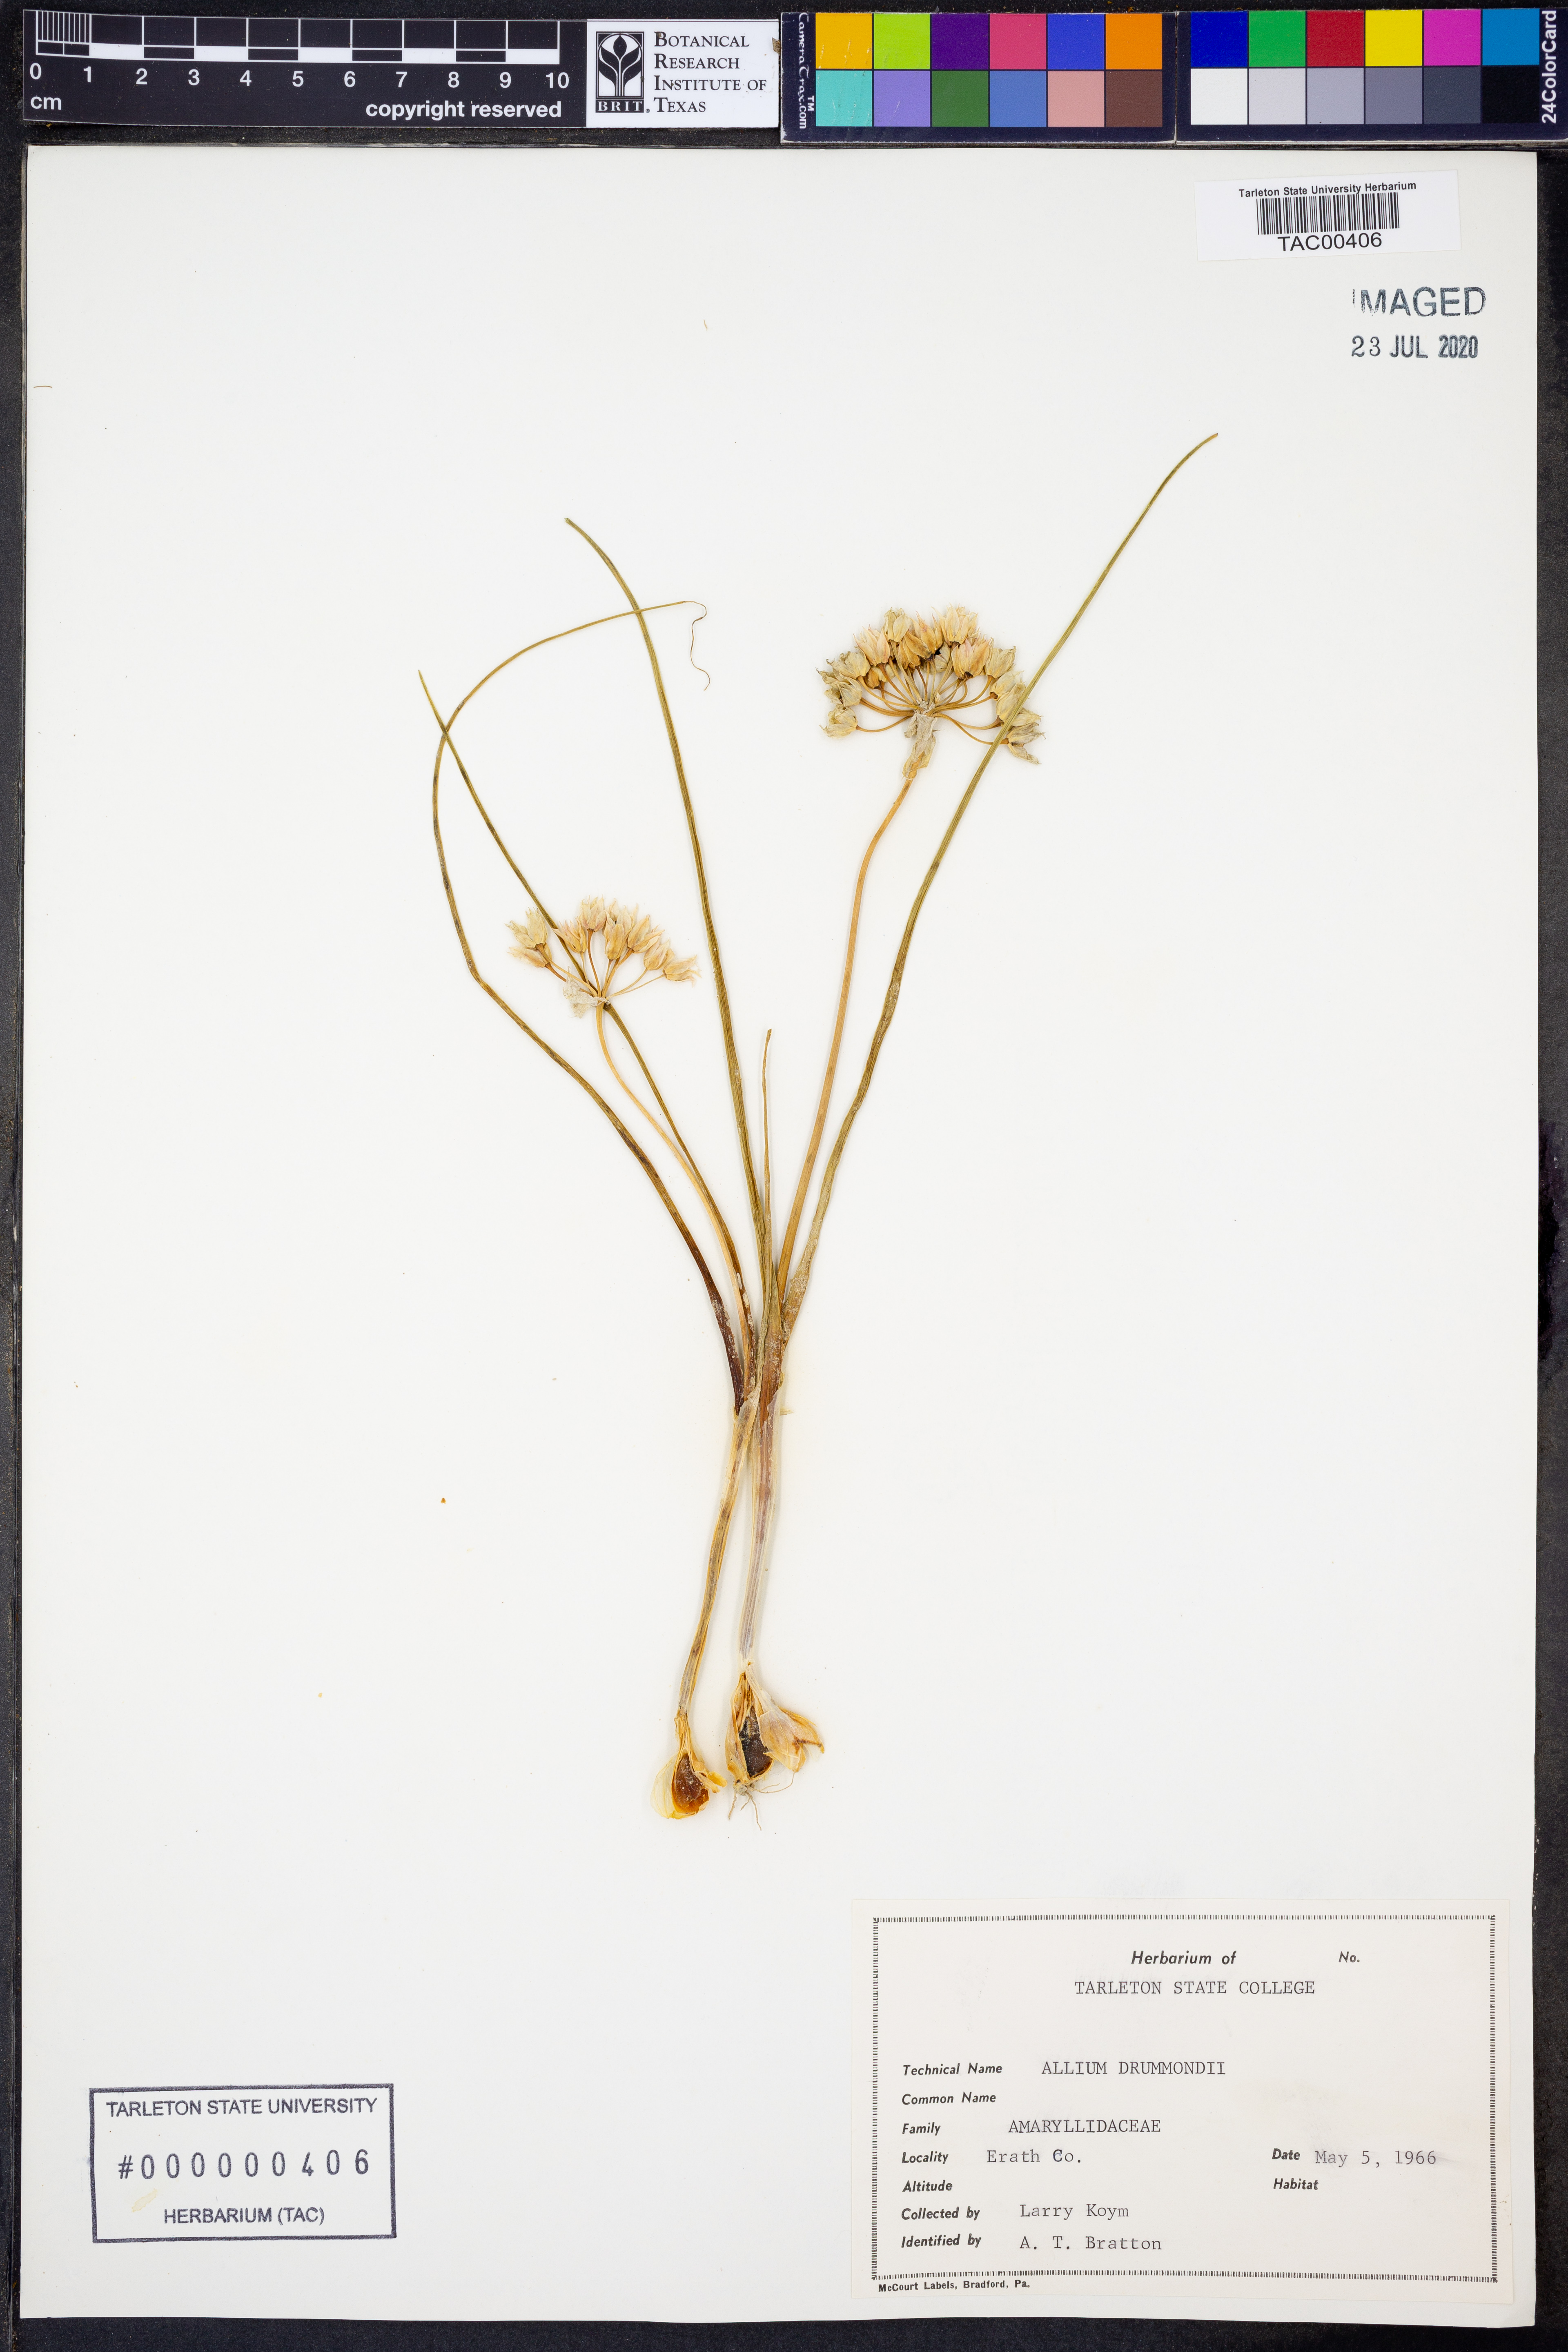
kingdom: Plantae
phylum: Tracheophyta
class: Liliopsida
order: Asparagales
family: Amaryllidaceae
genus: Allium
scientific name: Allium drummondii
